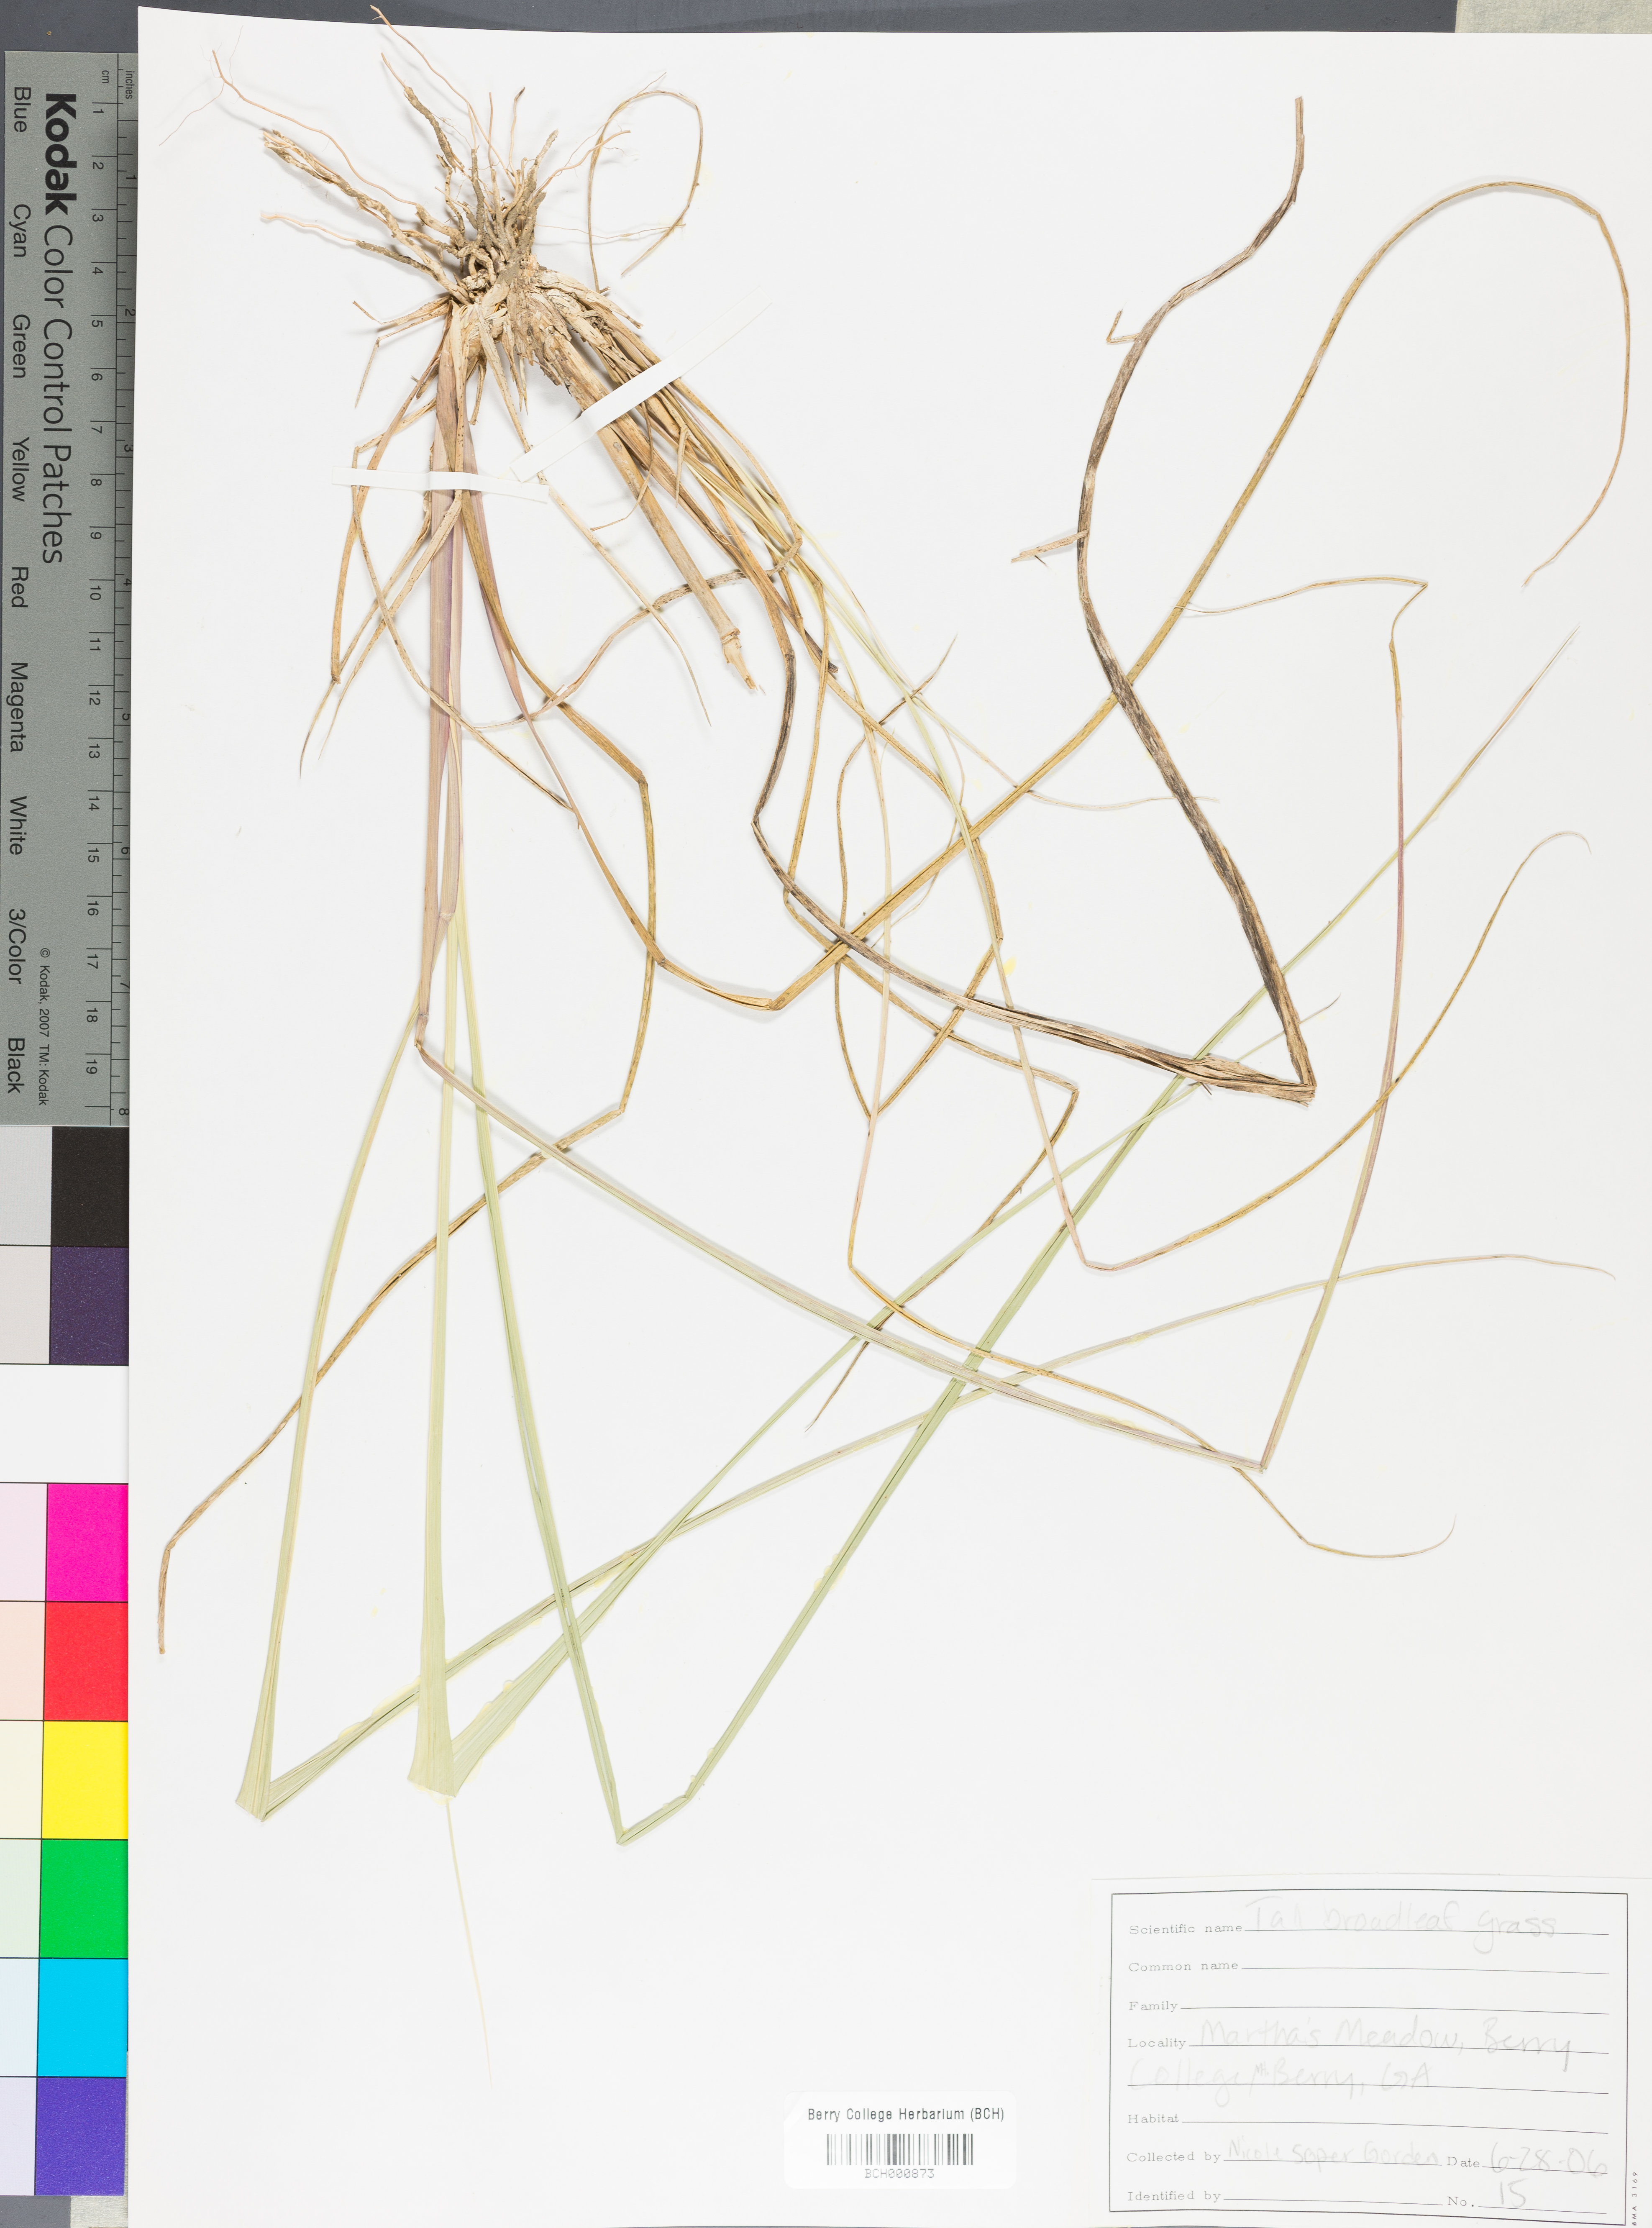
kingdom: Plantae
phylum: Tracheophyta
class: Magnoliopsida
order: Lamiales
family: Acanthaceae
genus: Adhatoda
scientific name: Adhatoda
